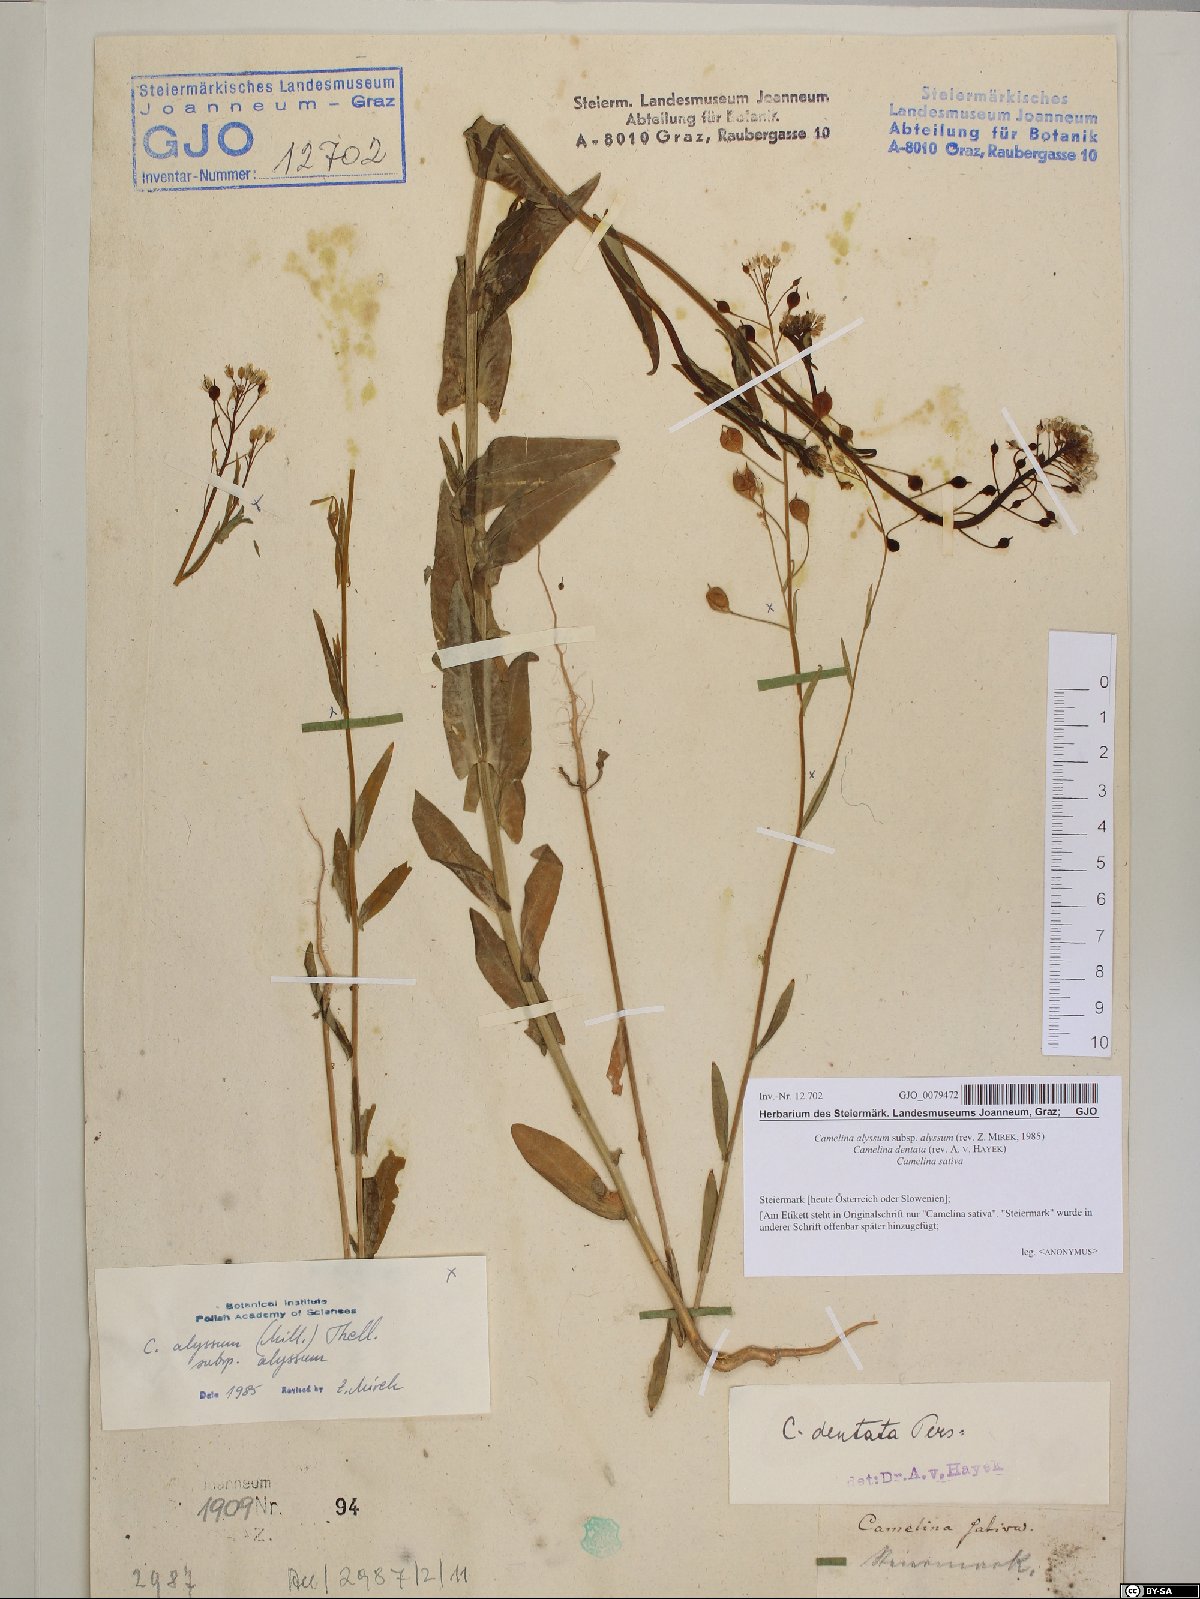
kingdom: Plantae
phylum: Tracheophyta
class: Magnoliopsida
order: Brassicales
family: Brassicaceae
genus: Camelina
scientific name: Camelina alyssum
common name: Gold-of-pleasure
